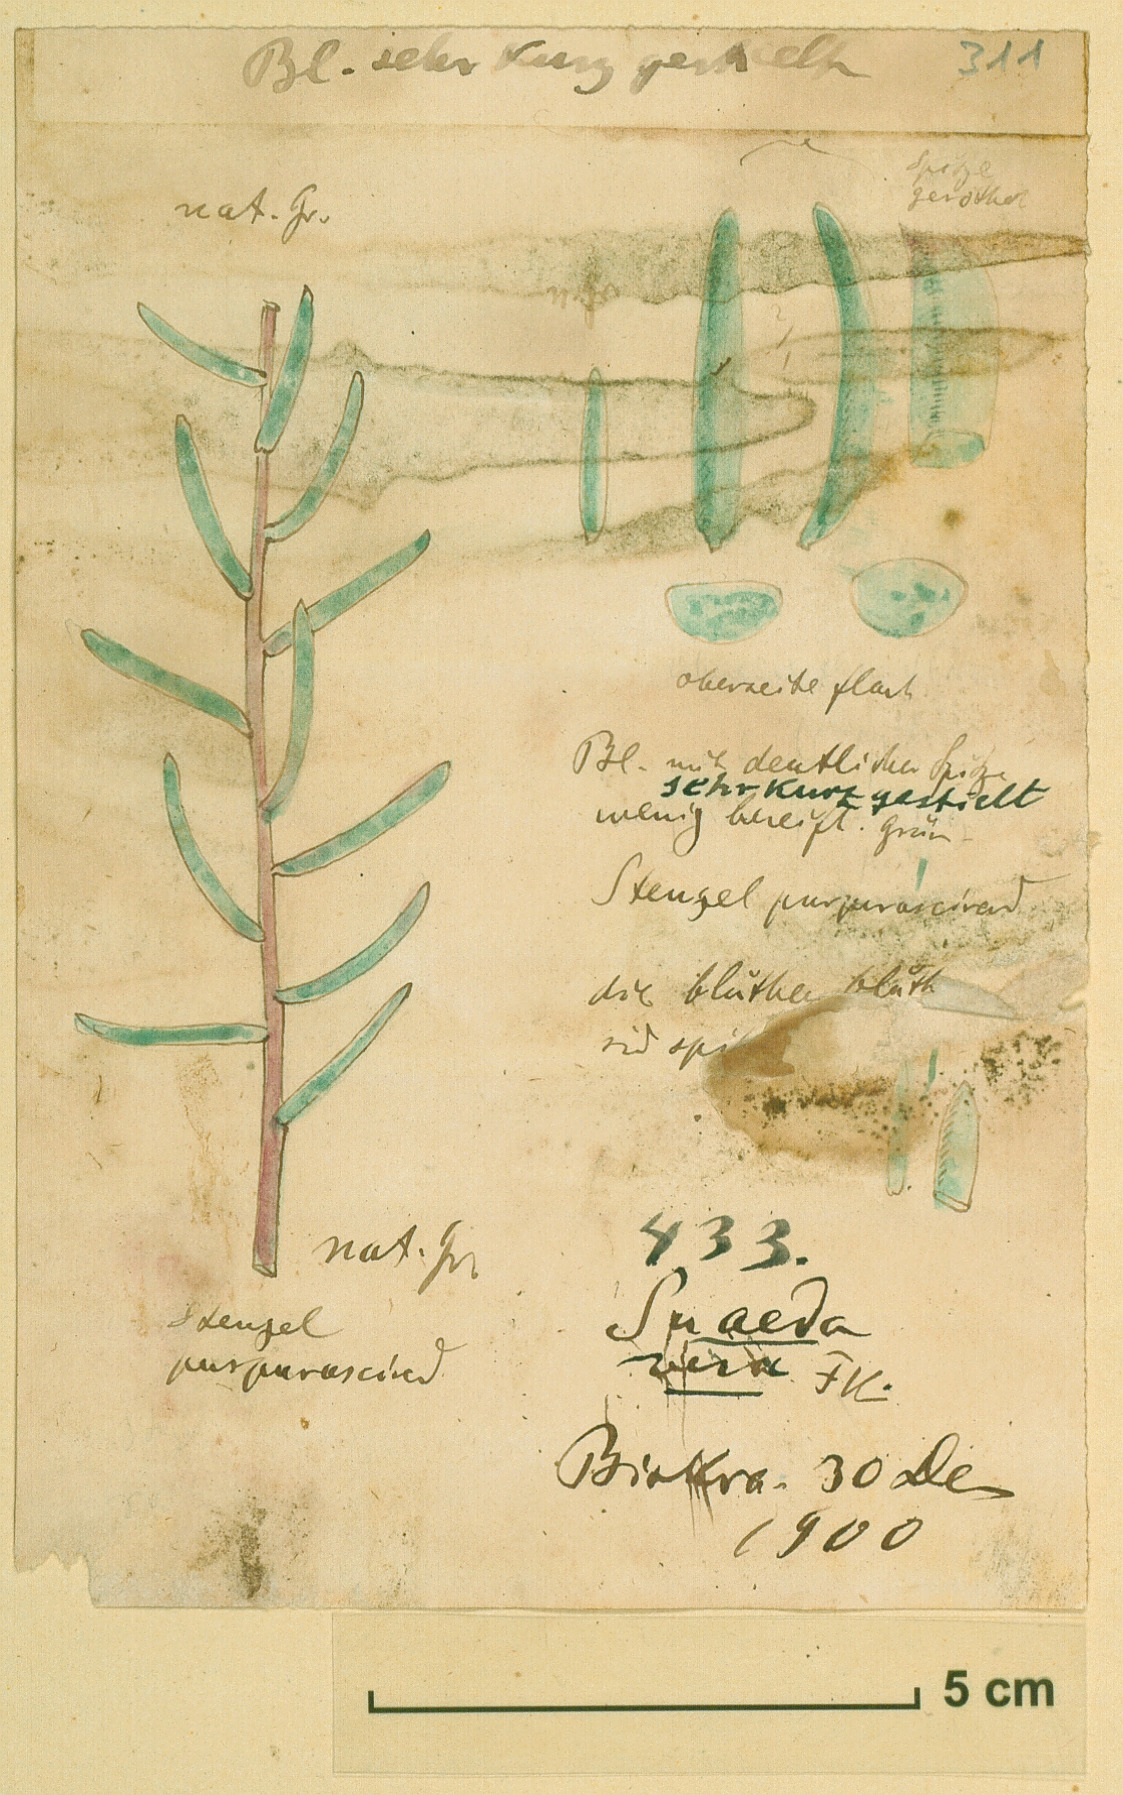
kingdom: Plantae
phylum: Tracheophyta
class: Magnoliopsida
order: Caryophyllales
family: Amaranthaceae
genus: Suaeda
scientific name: Suaeda vera
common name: Shrubby sea-blite
